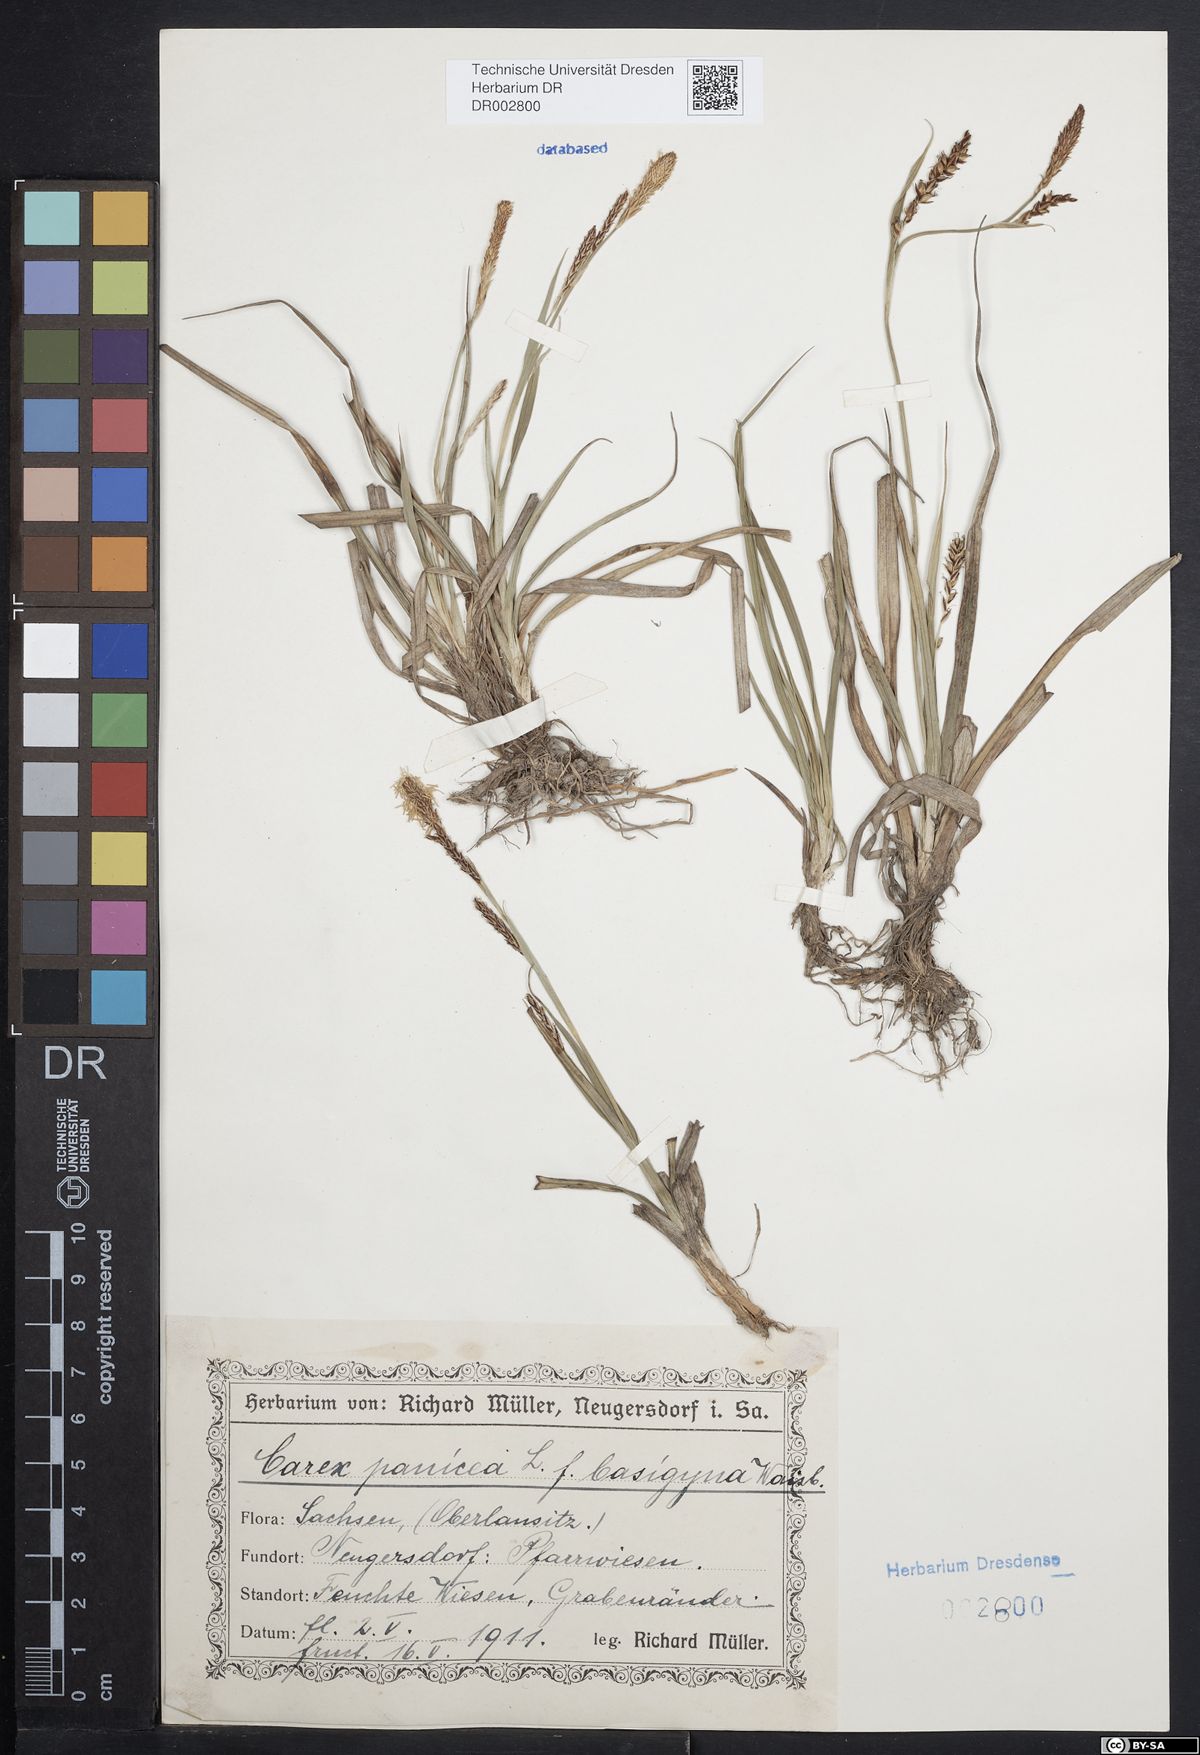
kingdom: Plantae
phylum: Tracheophyta
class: Liliopsida
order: Poales
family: Cyperaceae
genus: Carex
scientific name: Carex panicea
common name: Carnation sedge
